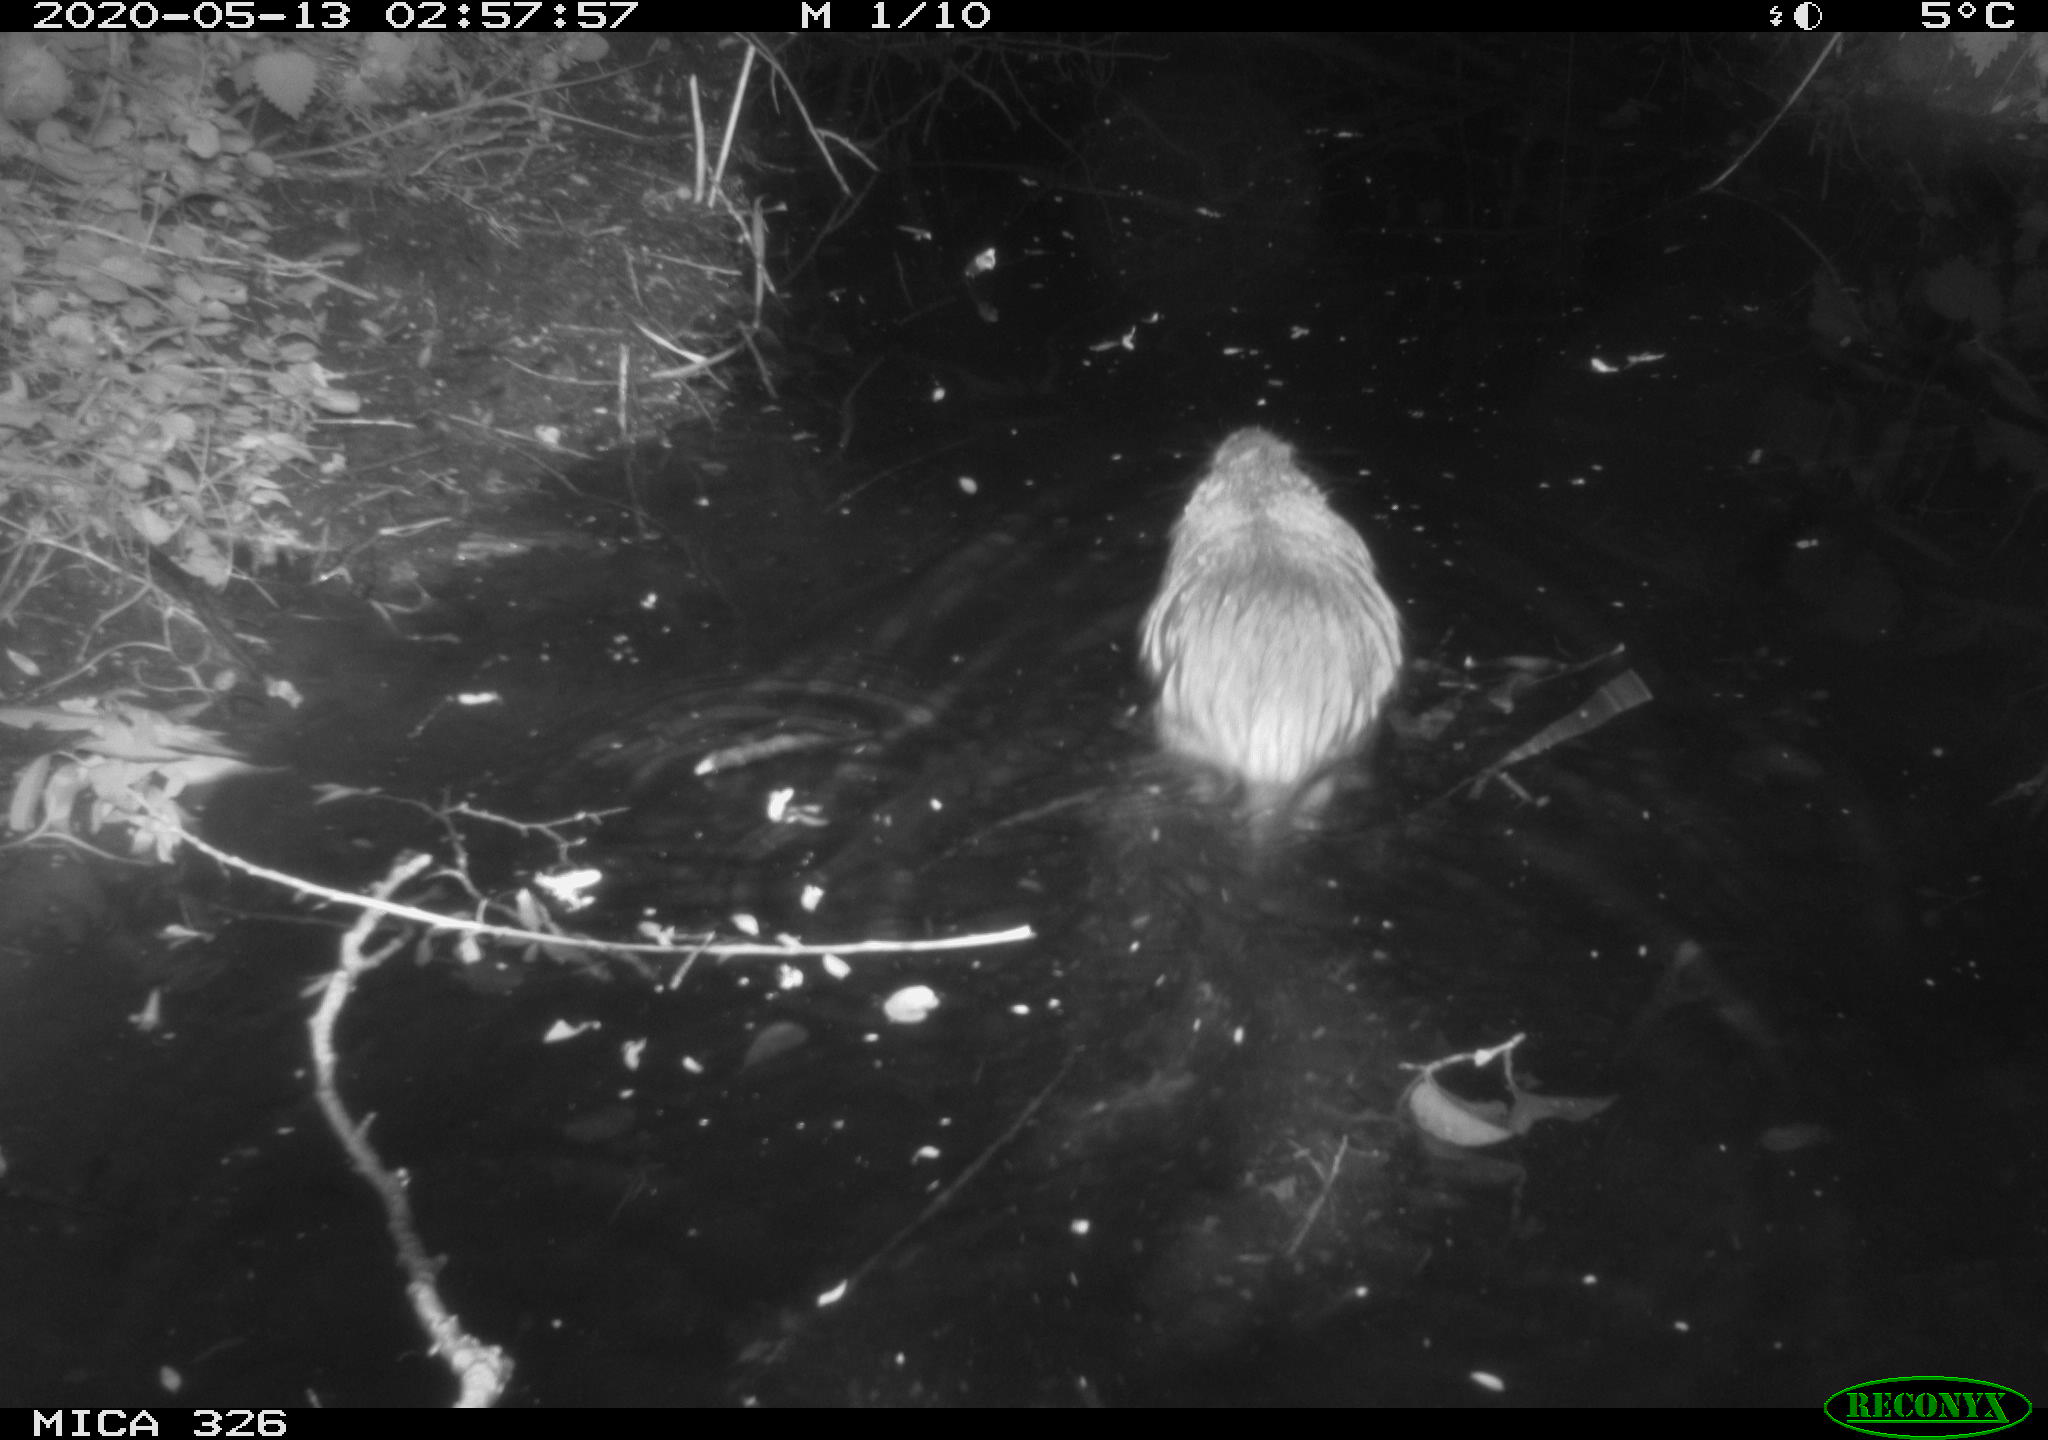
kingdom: Animalia
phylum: Chordata
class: Mammalia
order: Rodentia
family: Myocastoridae
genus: Myocastor
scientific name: Myocastor coypus
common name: Coypu
